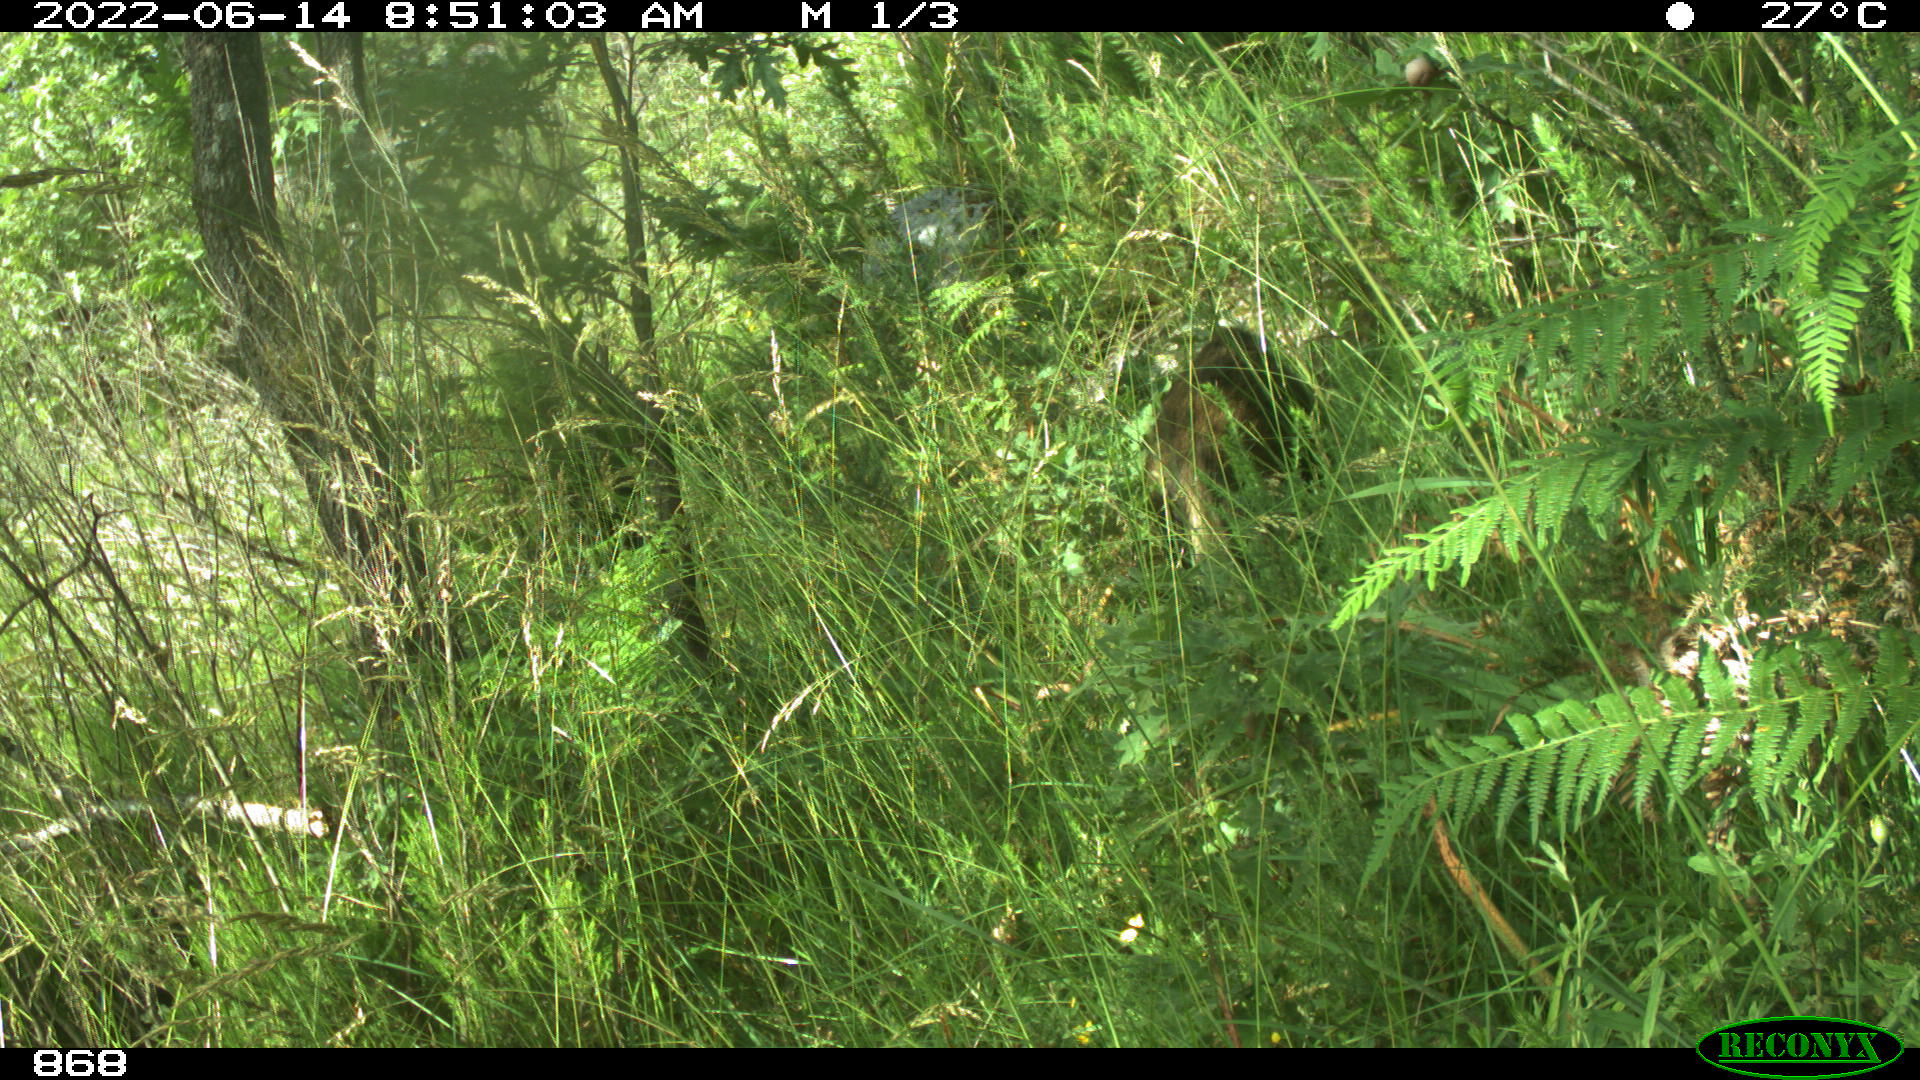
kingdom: Animalia
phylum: Chordata
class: Mammalia
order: Artiodactyla
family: Suidae
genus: Sus
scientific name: Sus scrofa
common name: Wild boar
